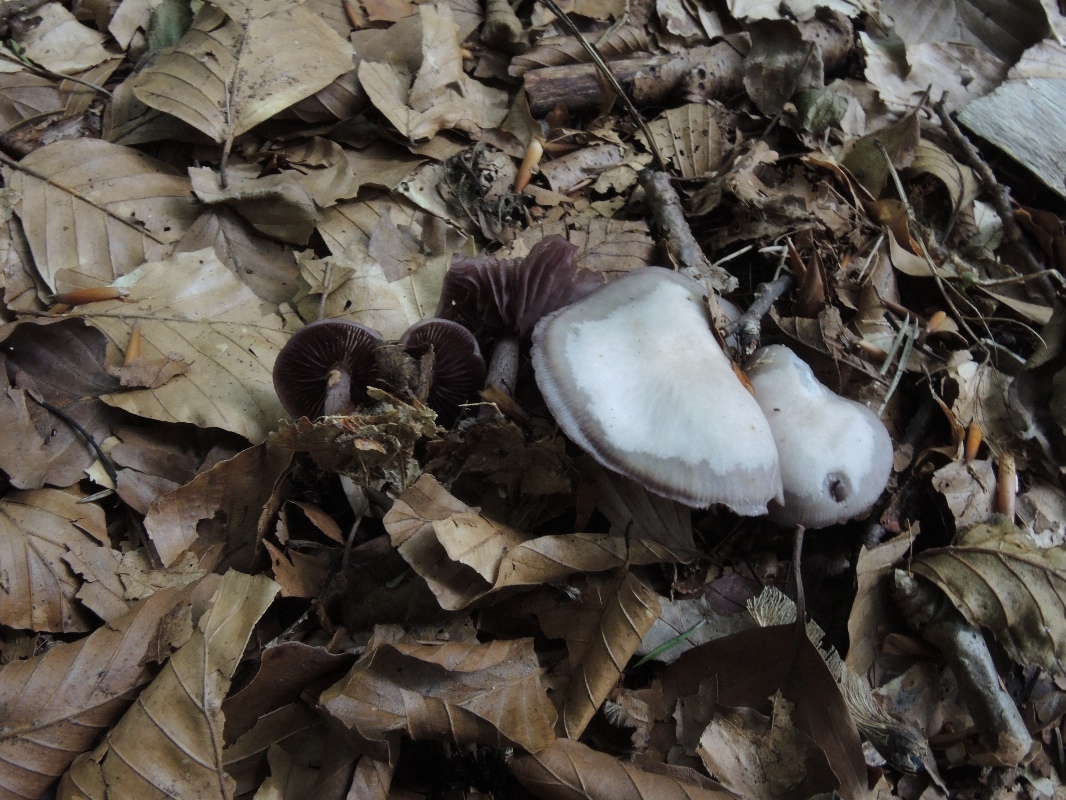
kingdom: Fungi
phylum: Basidiomycota
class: Agaricomycetes
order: Agaricales
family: Mycenaceae
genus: Mycena
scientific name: Mycena pelianthina
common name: mørkbladet huesvamp
